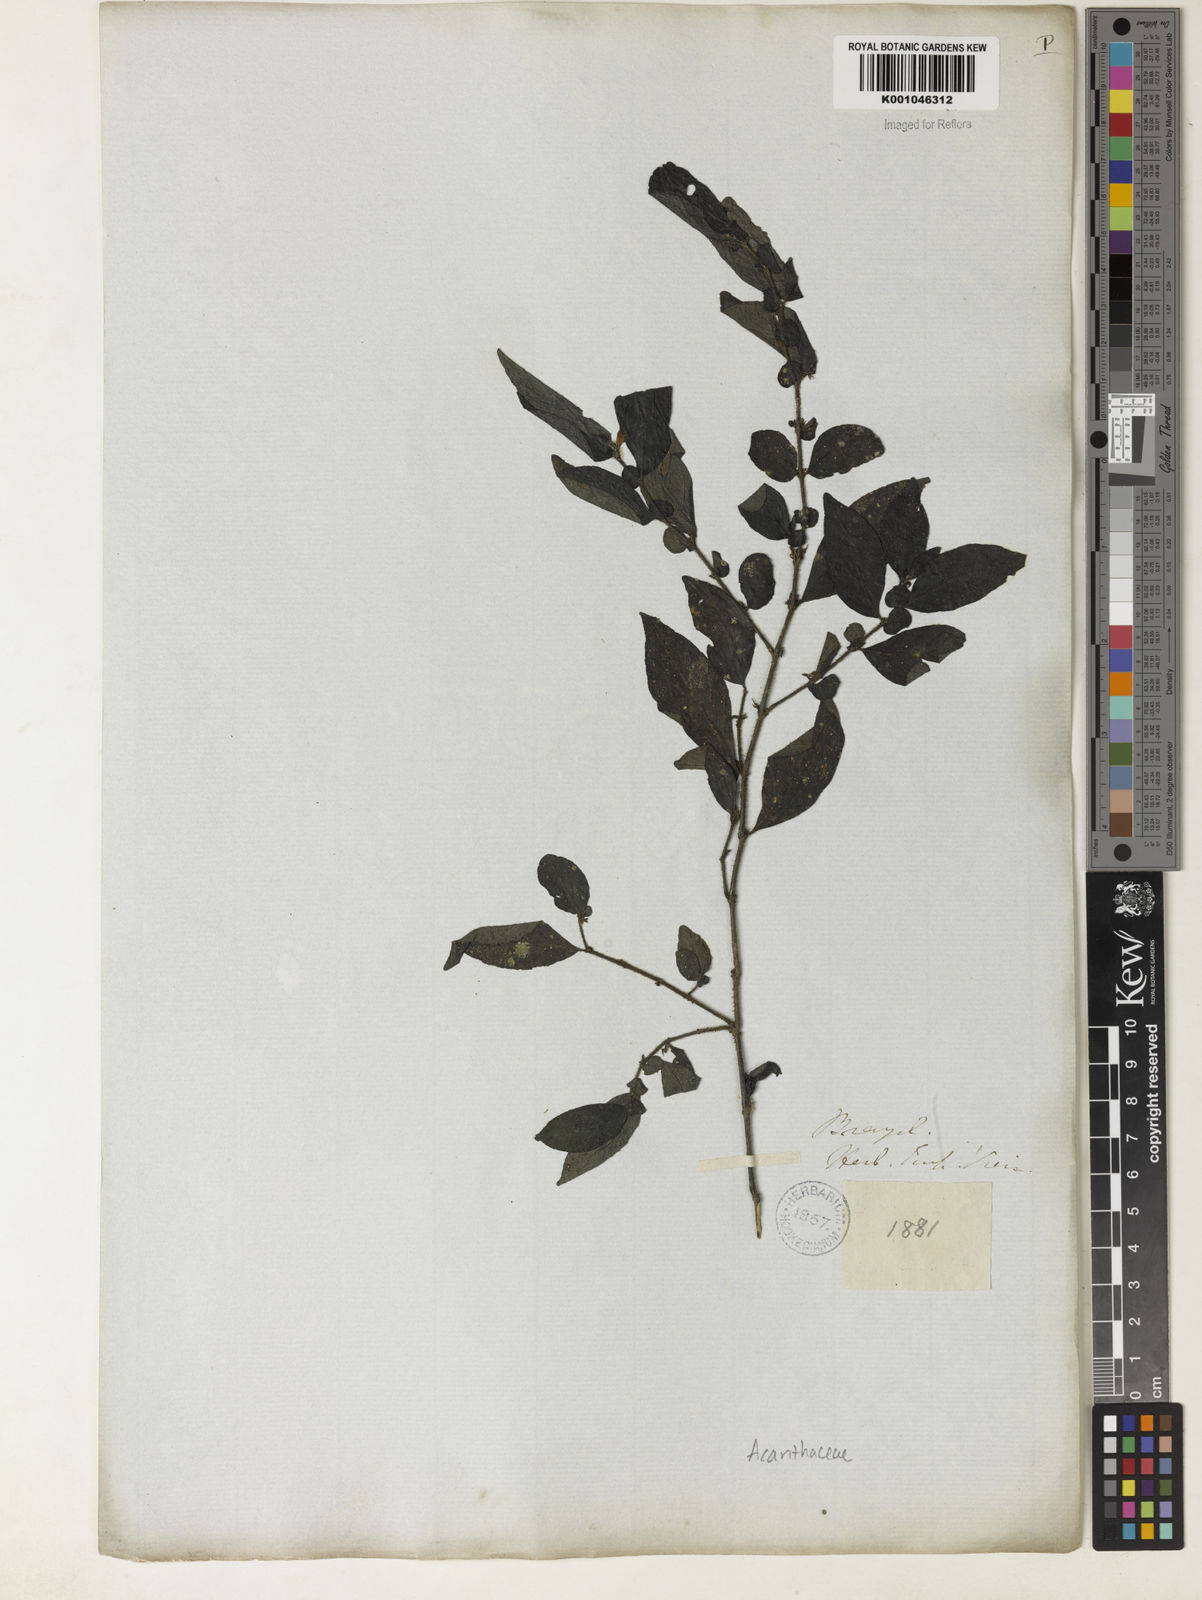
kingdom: Plantae
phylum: Tracheophyta
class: Magnoliopsida
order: Lamiales
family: Acanthaceae
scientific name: Acanthaceae
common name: Acanthaceae
